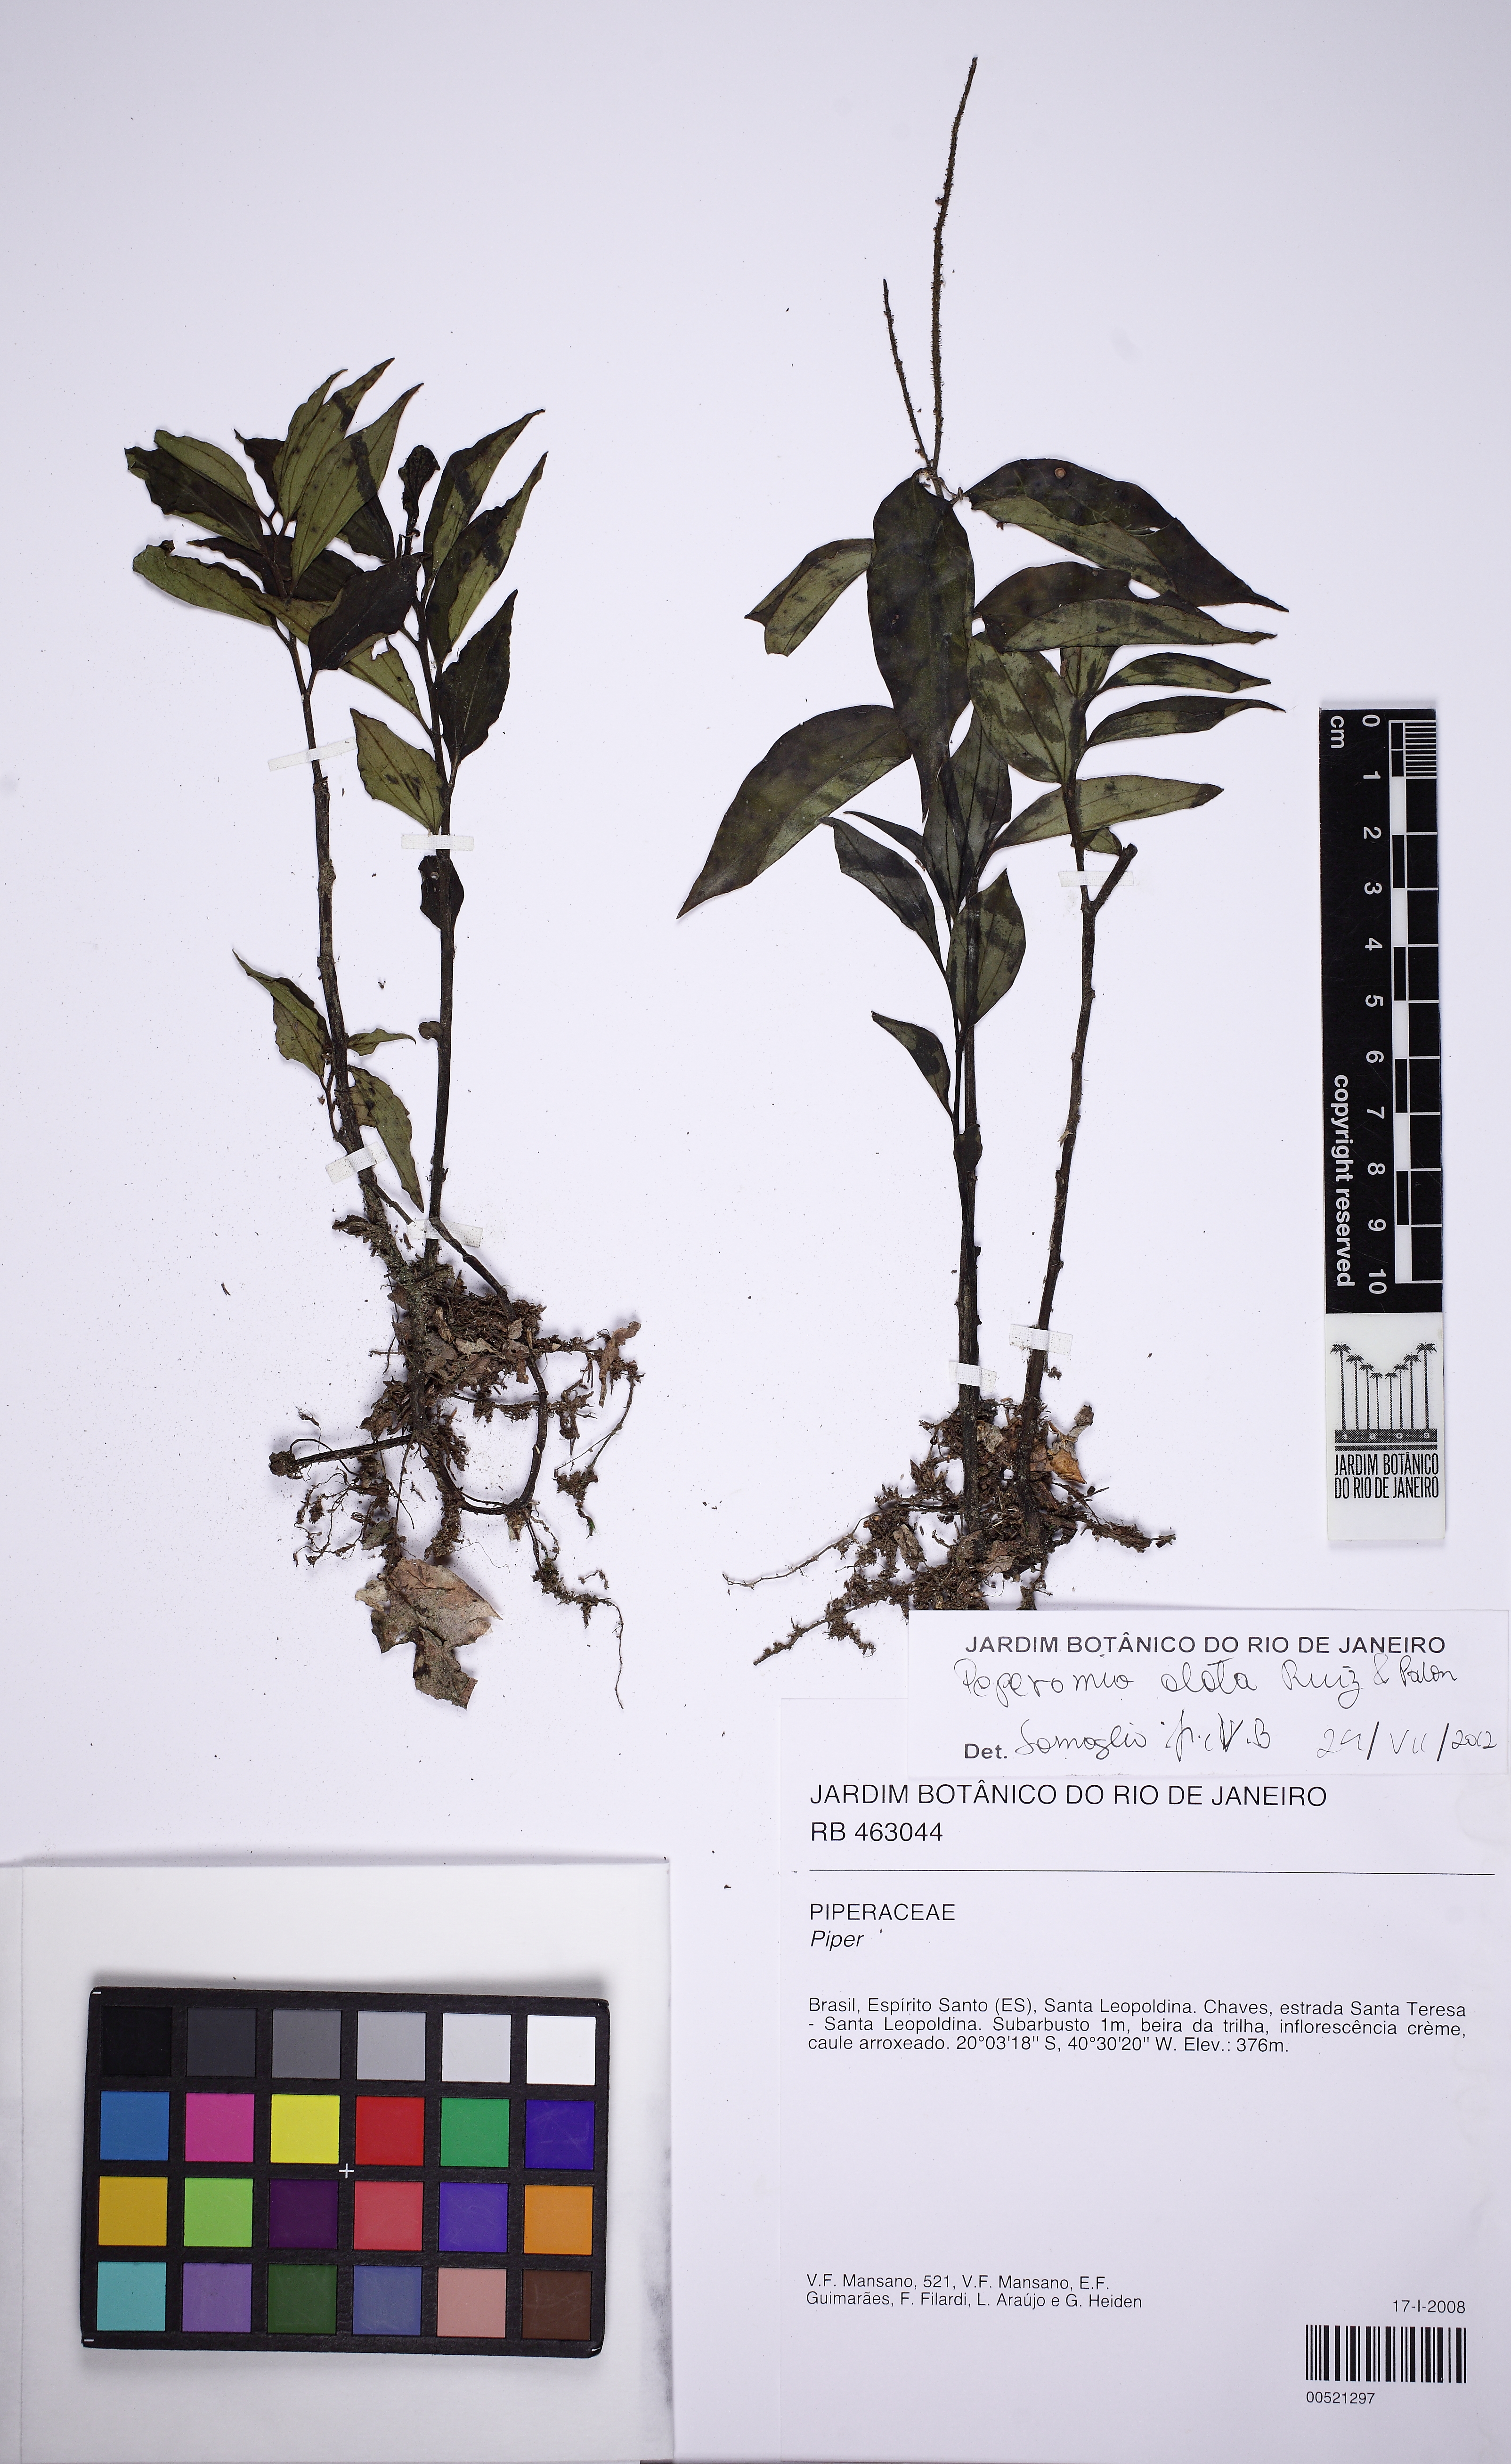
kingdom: Plantae
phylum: Tracheophyta
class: Magnoliopsida
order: Piperales
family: Piperaceae
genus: Peperomia
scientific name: Peperomia alata
